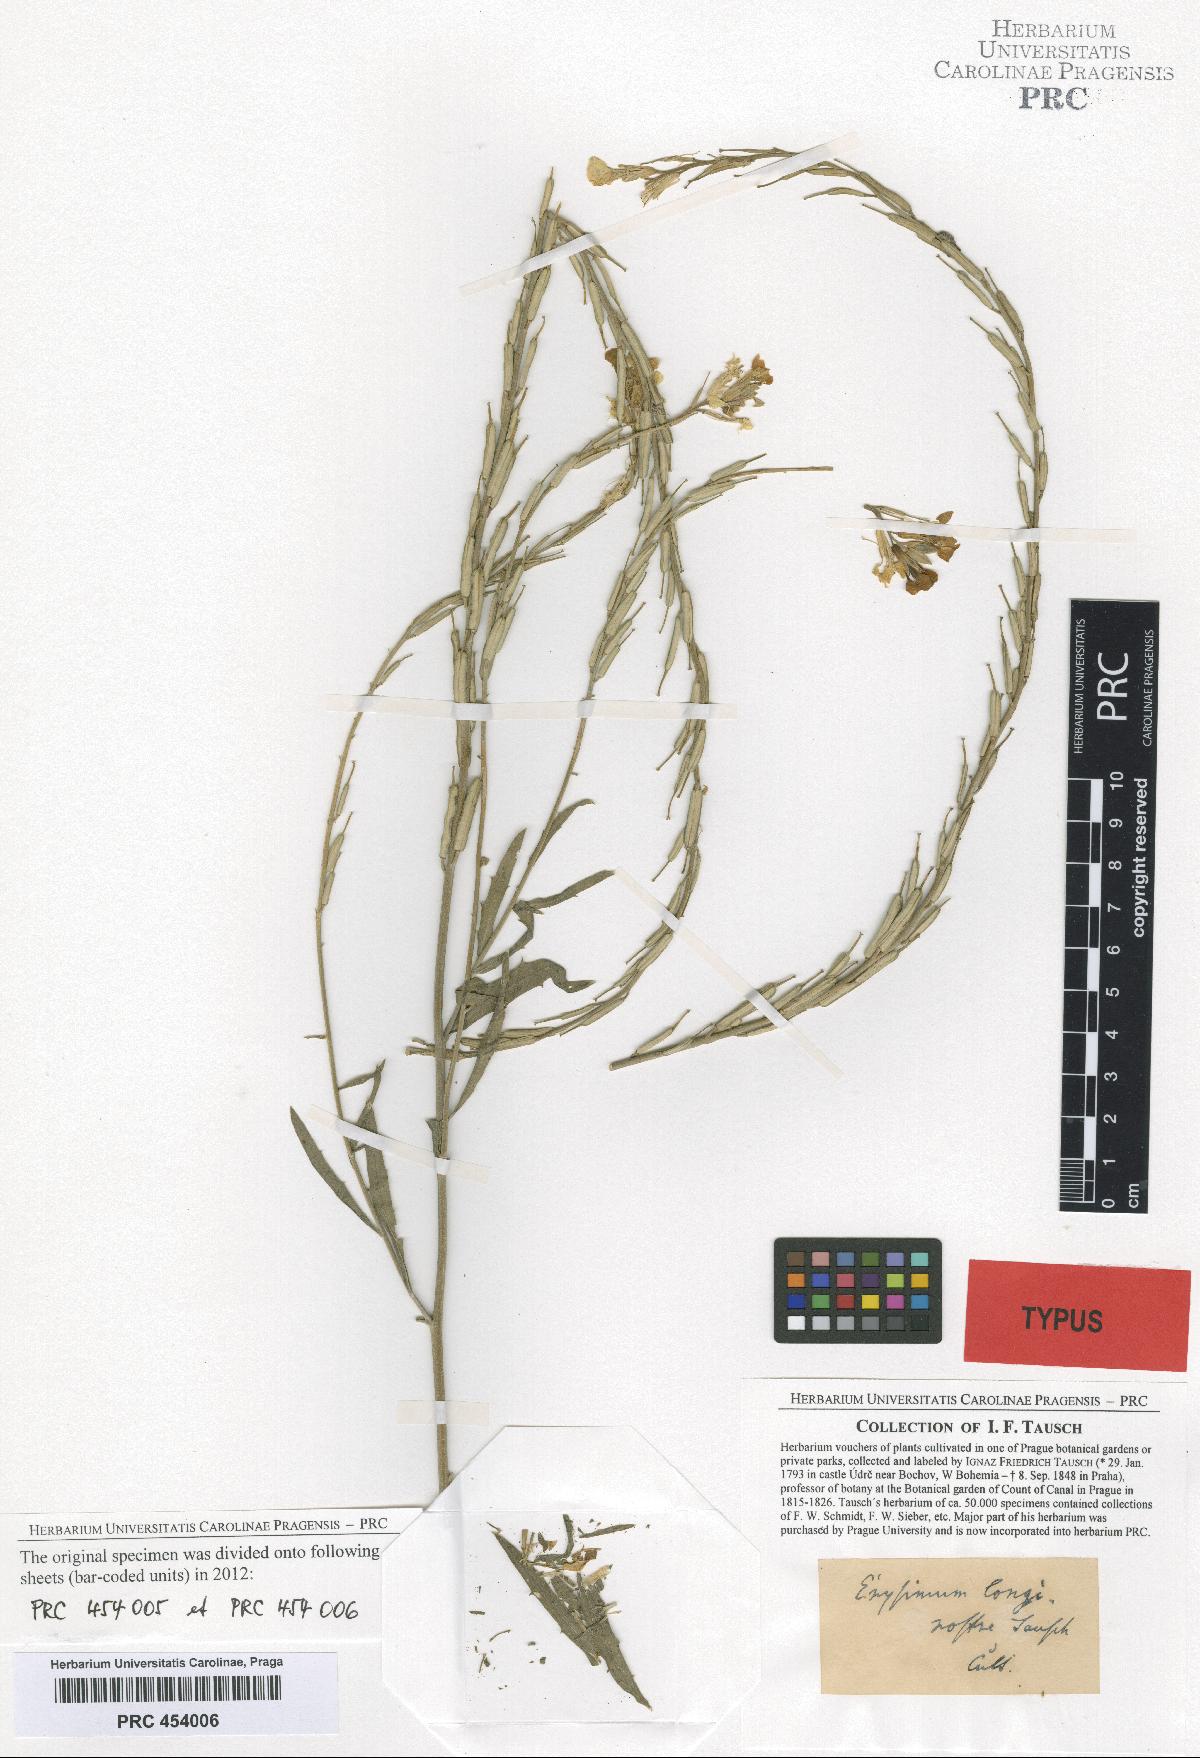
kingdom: Plantae
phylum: Tracheophyta
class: Magnoliopsida
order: Brassicales
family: Brassicaceae
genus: Erysimum
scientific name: Erysimum longirostre
